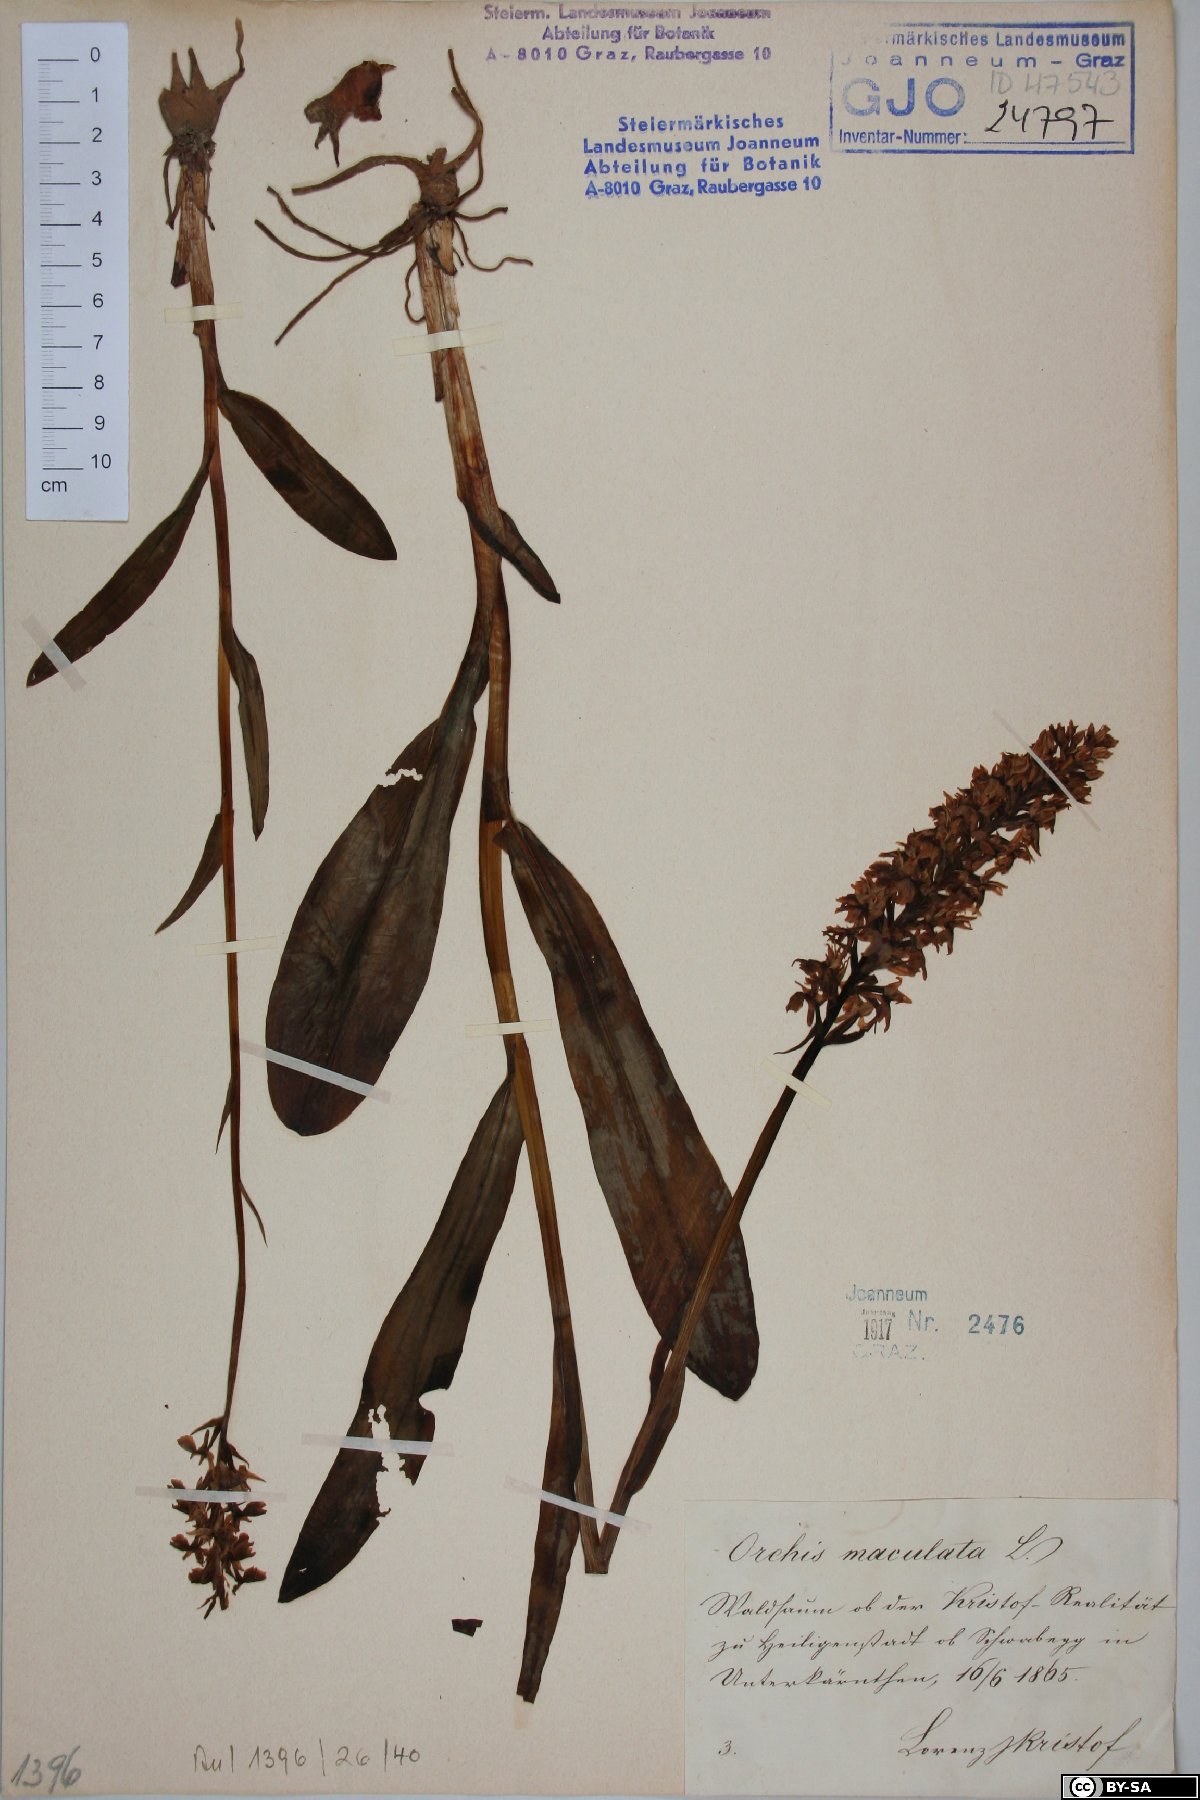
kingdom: Plantae
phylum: Tracheophyta
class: Liliopsida
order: Asparagales
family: Orchidaceae
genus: Dactylorhiza
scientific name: Dactylorhiza maculata
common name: Heath spotted-orchid
